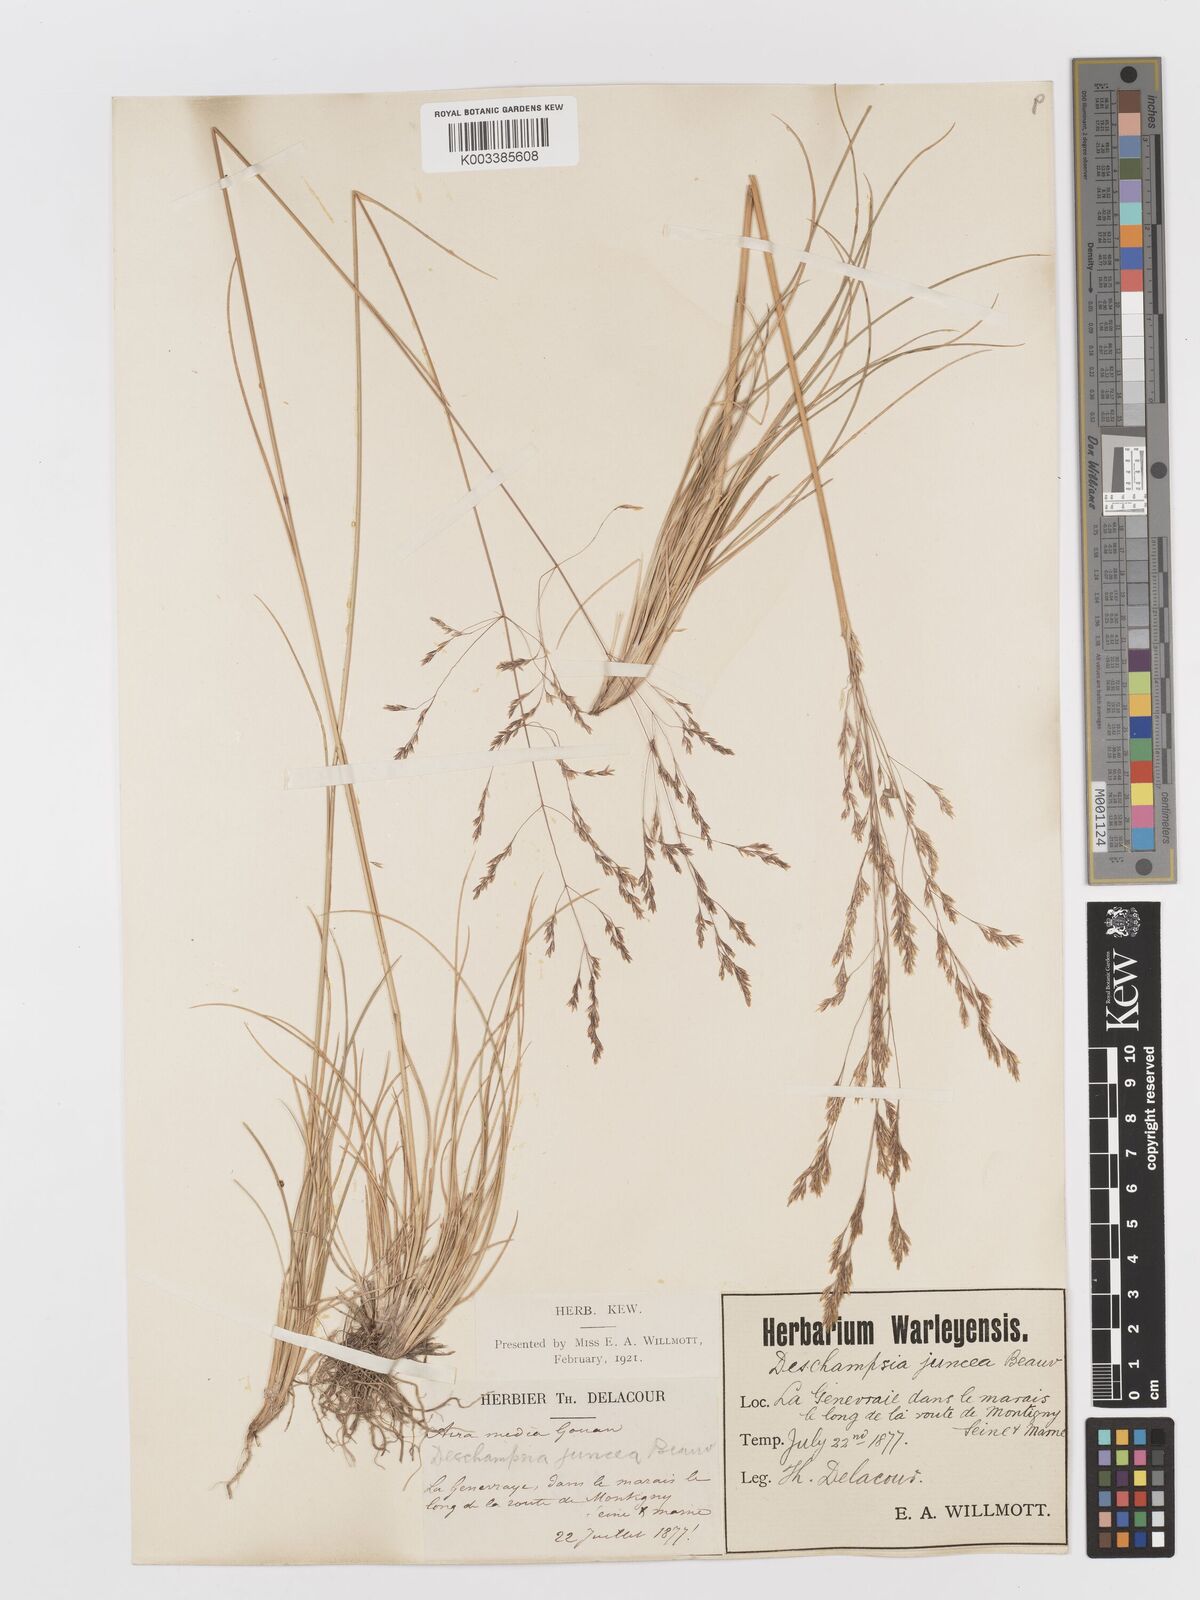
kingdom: Plantae
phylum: Tracheophyta
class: Liliopsida
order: Poales
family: Poaceae
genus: Deschampsia
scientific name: Deschampsia media
